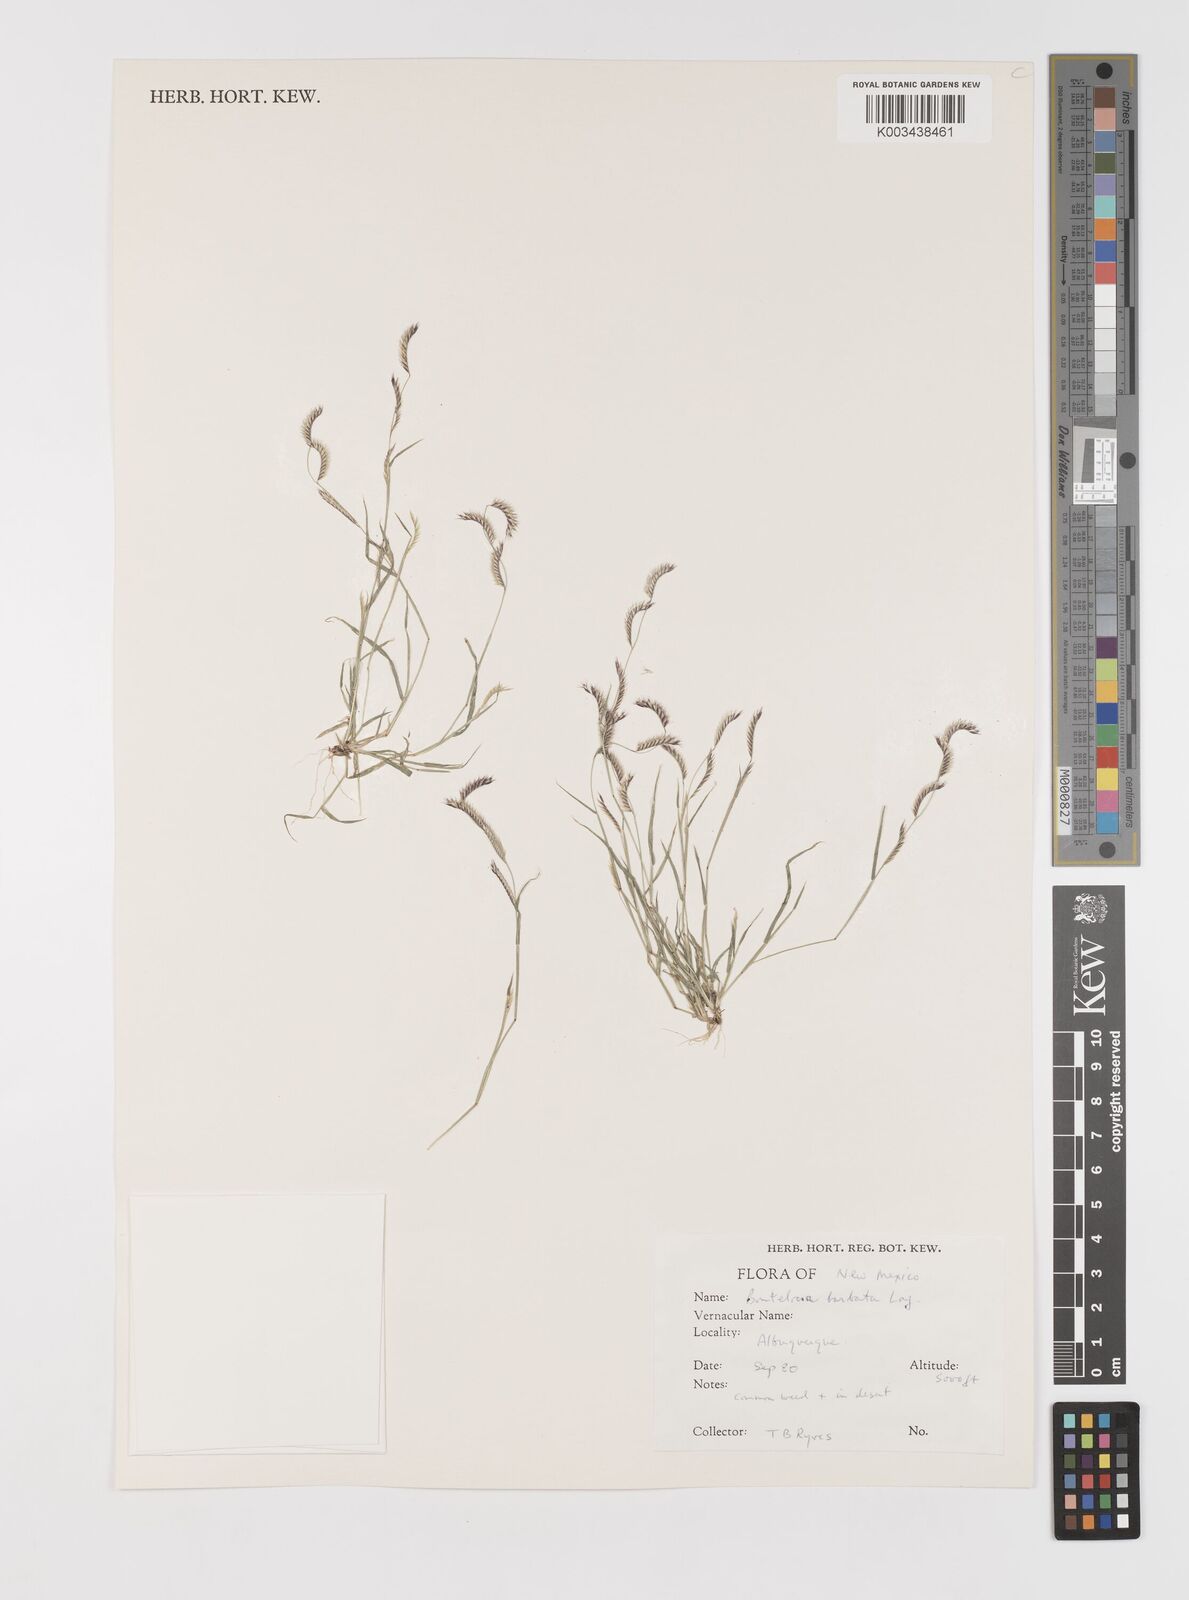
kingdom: Plantae
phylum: Tracheophyta
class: Liliopsida
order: Poales
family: Poaceae
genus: Bouteloua
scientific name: Bouteloua
